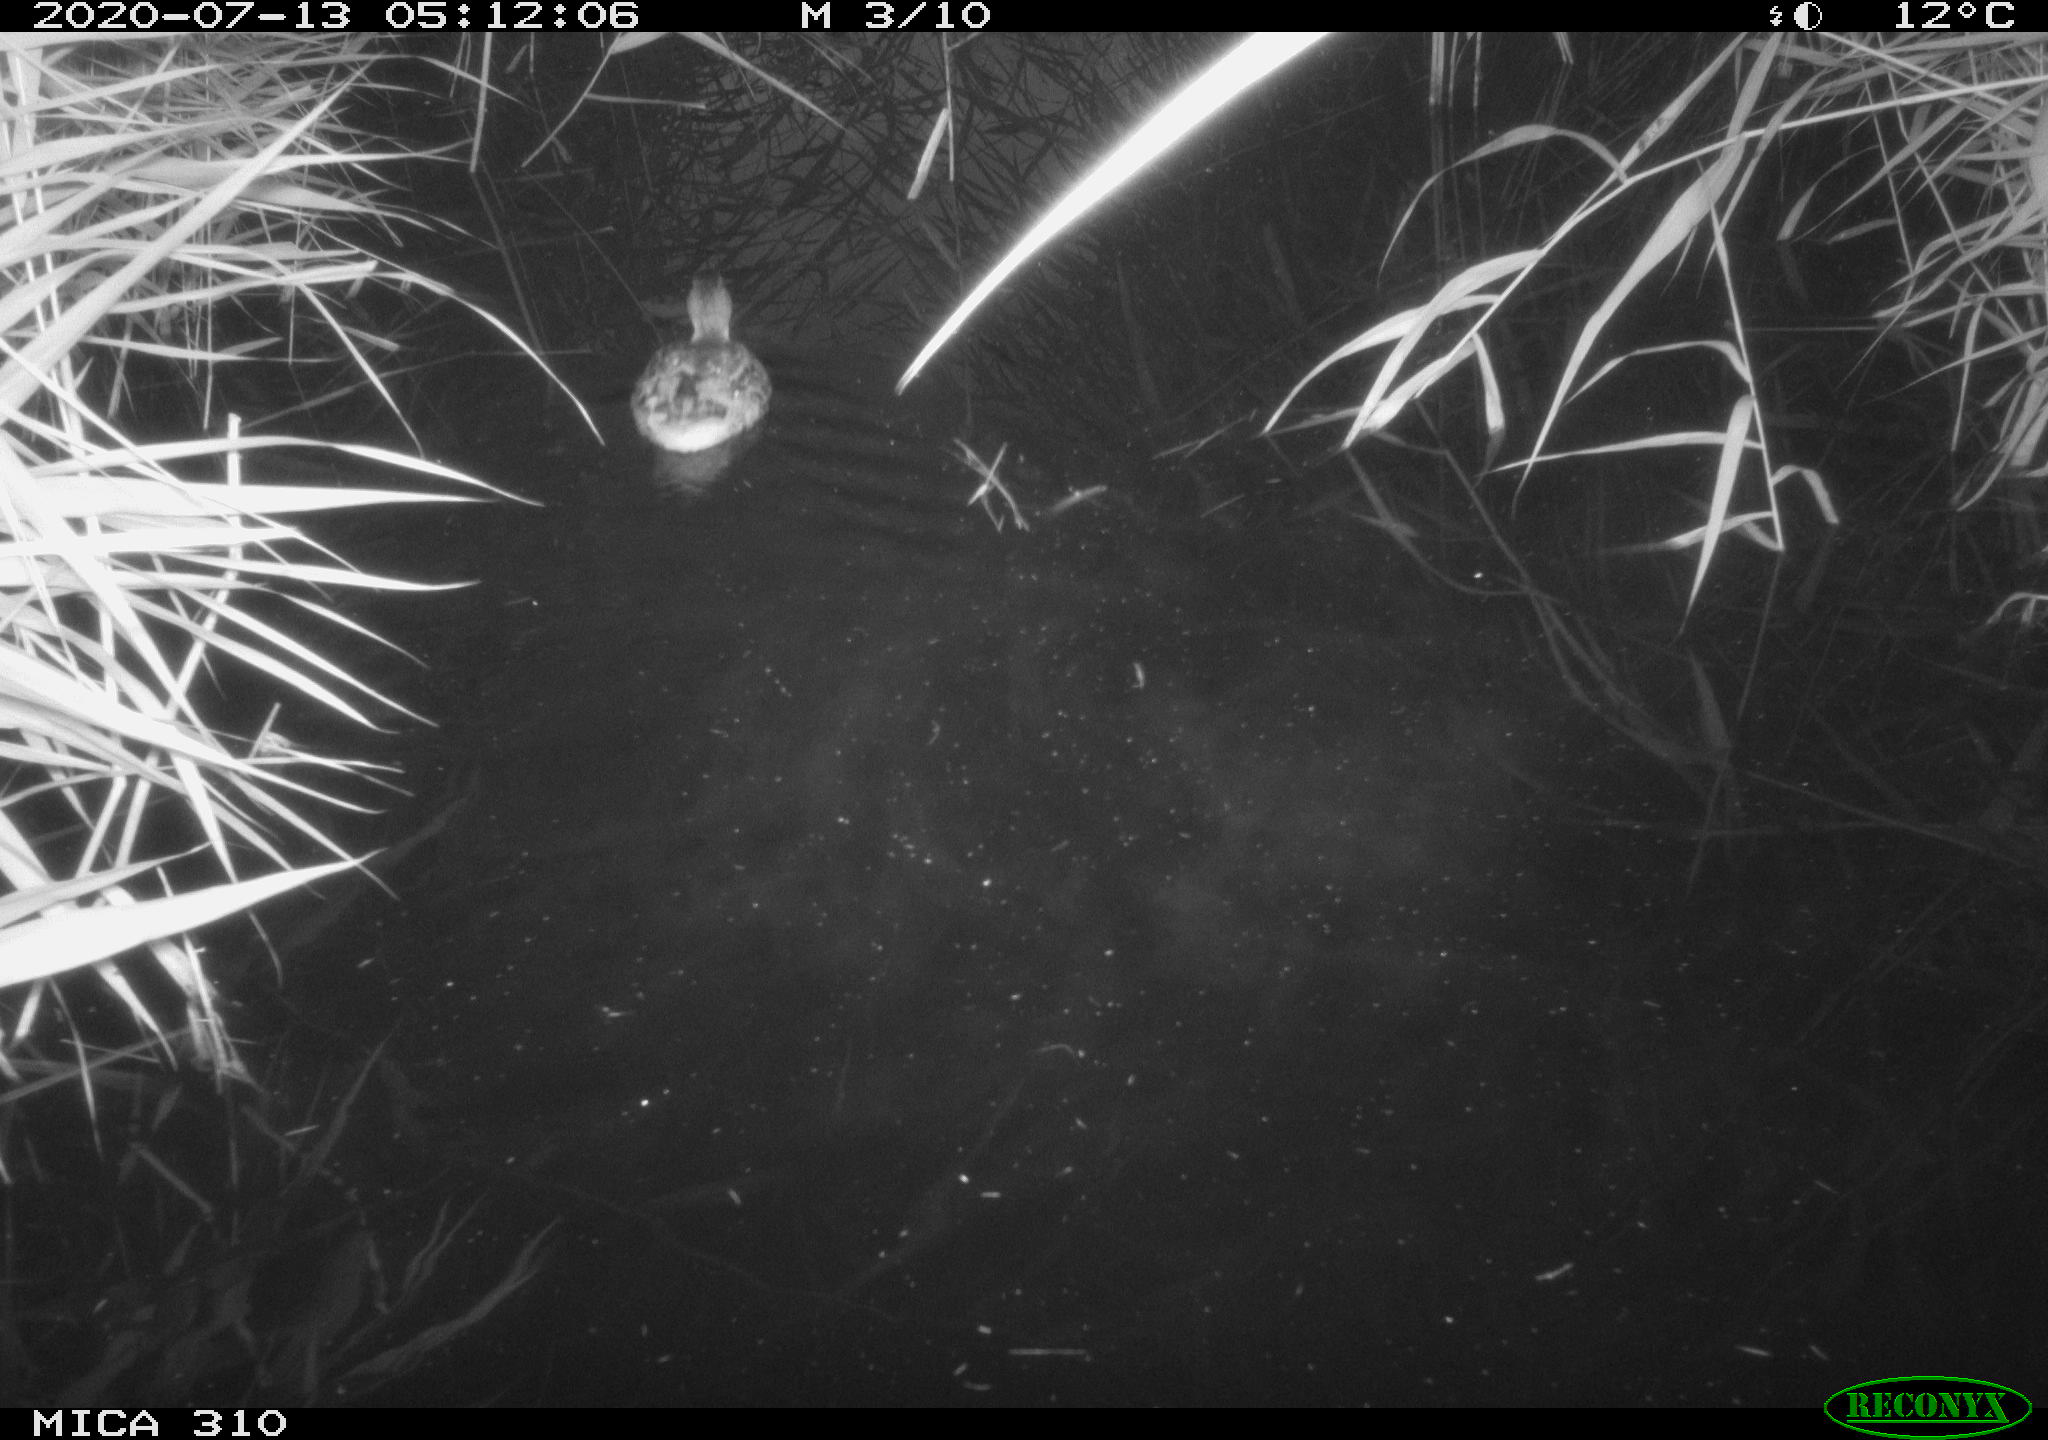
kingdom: Animalia
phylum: Chordata
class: Aves
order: Anseriformes
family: Anatidae
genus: Anas
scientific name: Anas platyrhynchos
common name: Mallard
